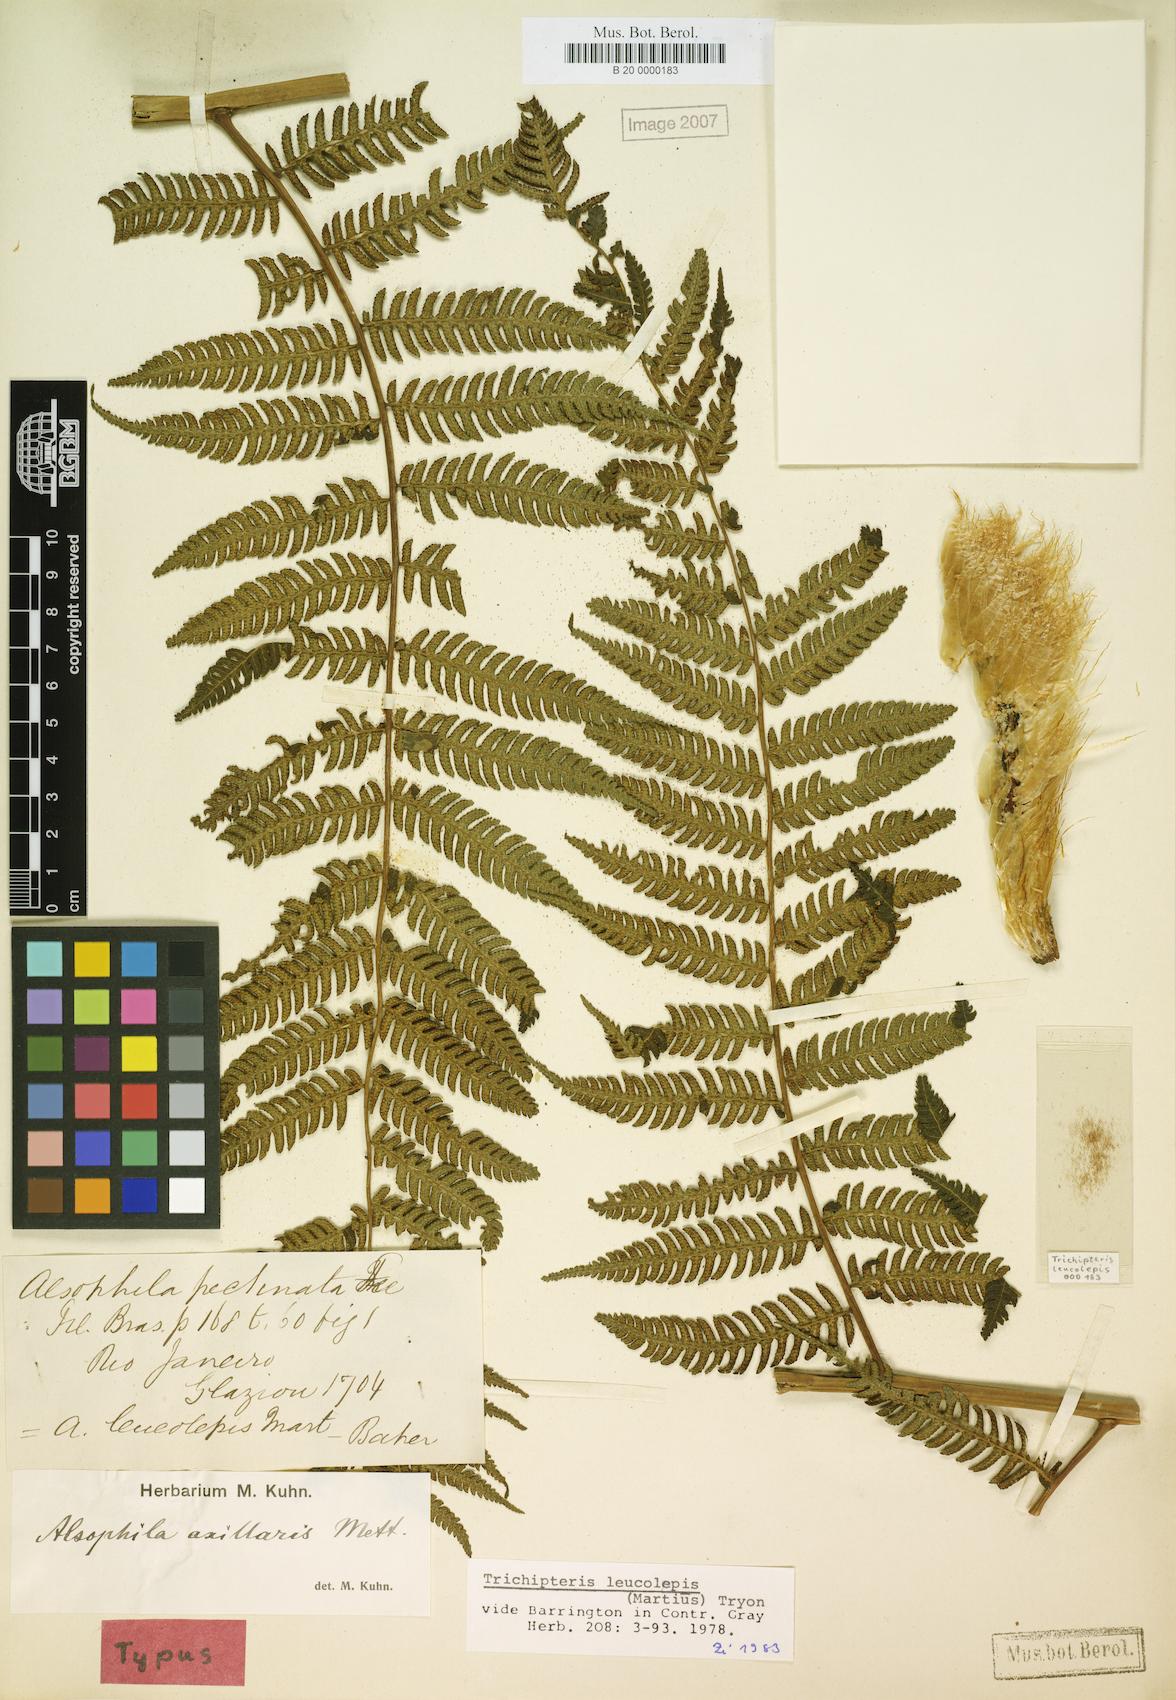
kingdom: Plantae
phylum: Tracheophyta
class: Polypodiopsida
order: Cyatheales
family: Cyatheaceae
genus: Cyathea
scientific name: Cyathea axillaris
